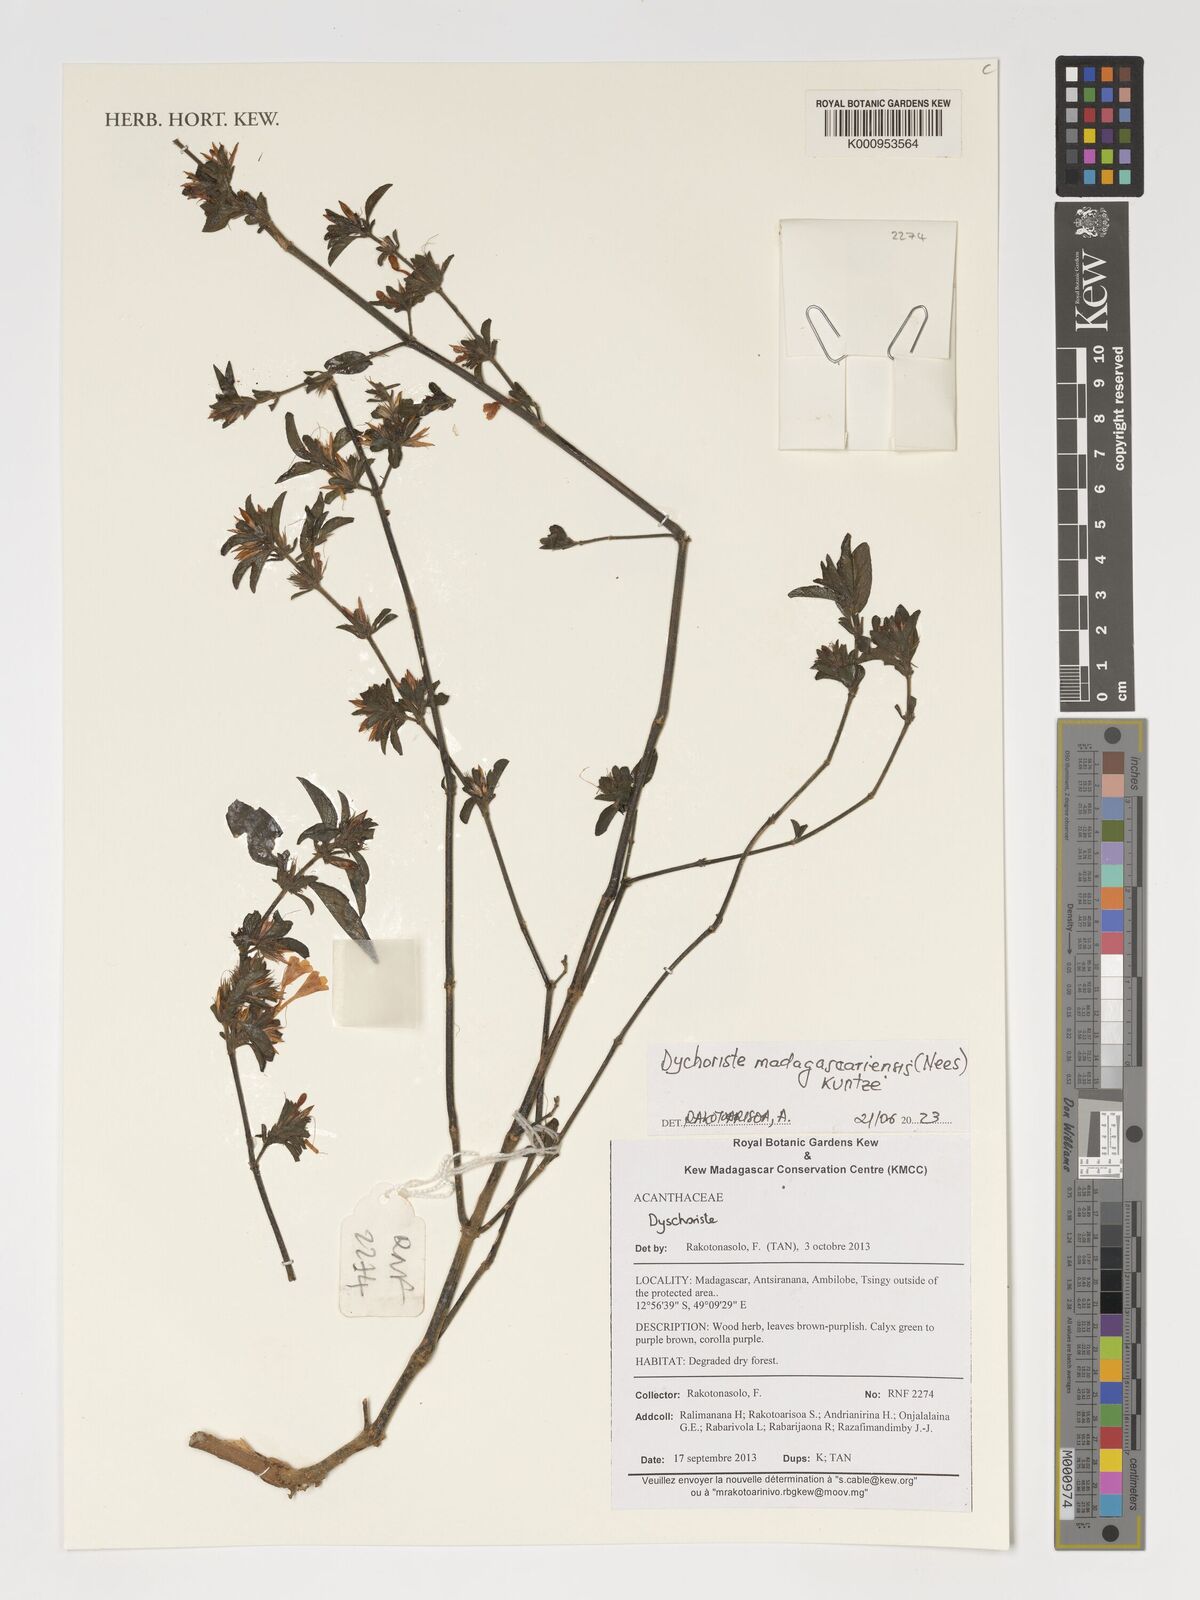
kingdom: Plantae
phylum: Tracheophyta
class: Magnoliopsida
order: Lamiales
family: Acanthaceae
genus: Dyschoriste
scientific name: Dyschoriste madagascariensis
